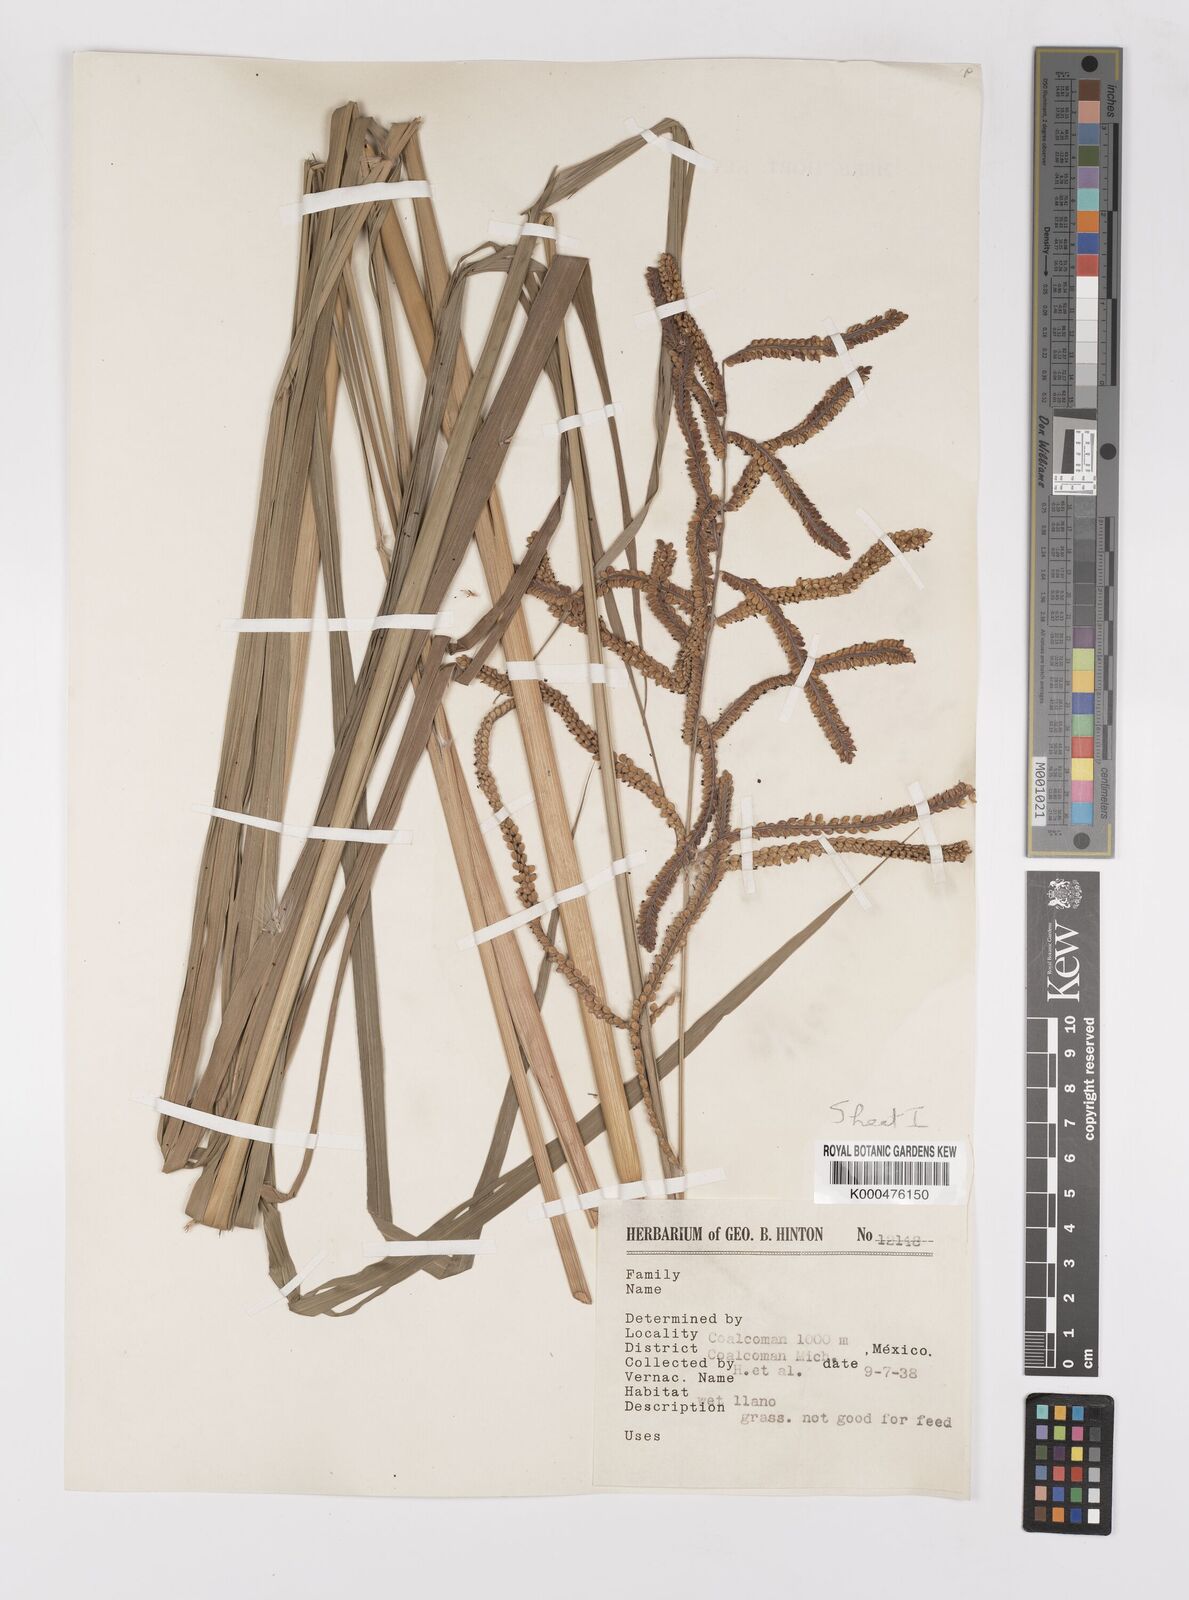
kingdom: Plantae
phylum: Tracheophyta
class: Liliopsida
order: Poales
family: Poaceae
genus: Paspalum
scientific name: Paspalum
